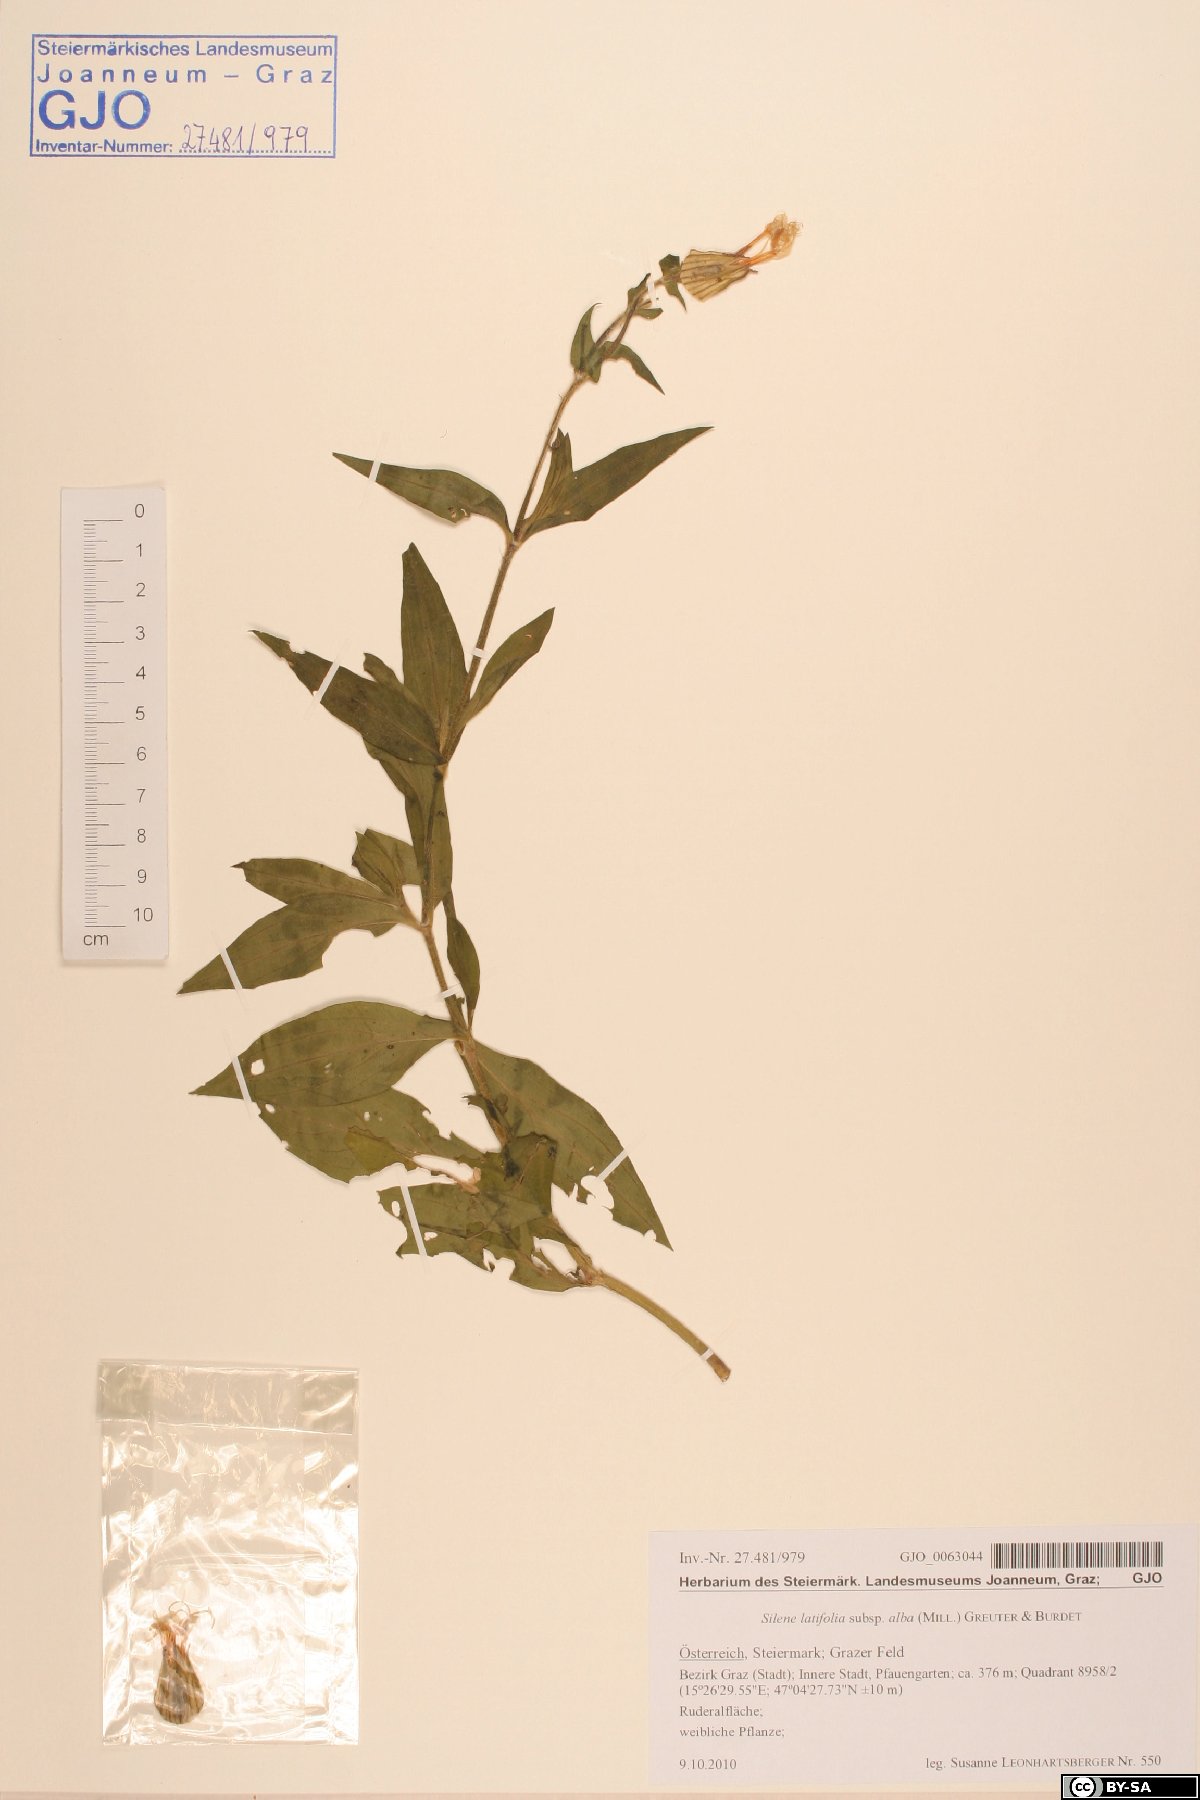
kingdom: Plantae
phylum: Tracheophyta
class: Magnoliopsida
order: Caryophyllales
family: Caryophyllaceae
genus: Silene
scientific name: Silene latifolia
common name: White campion
